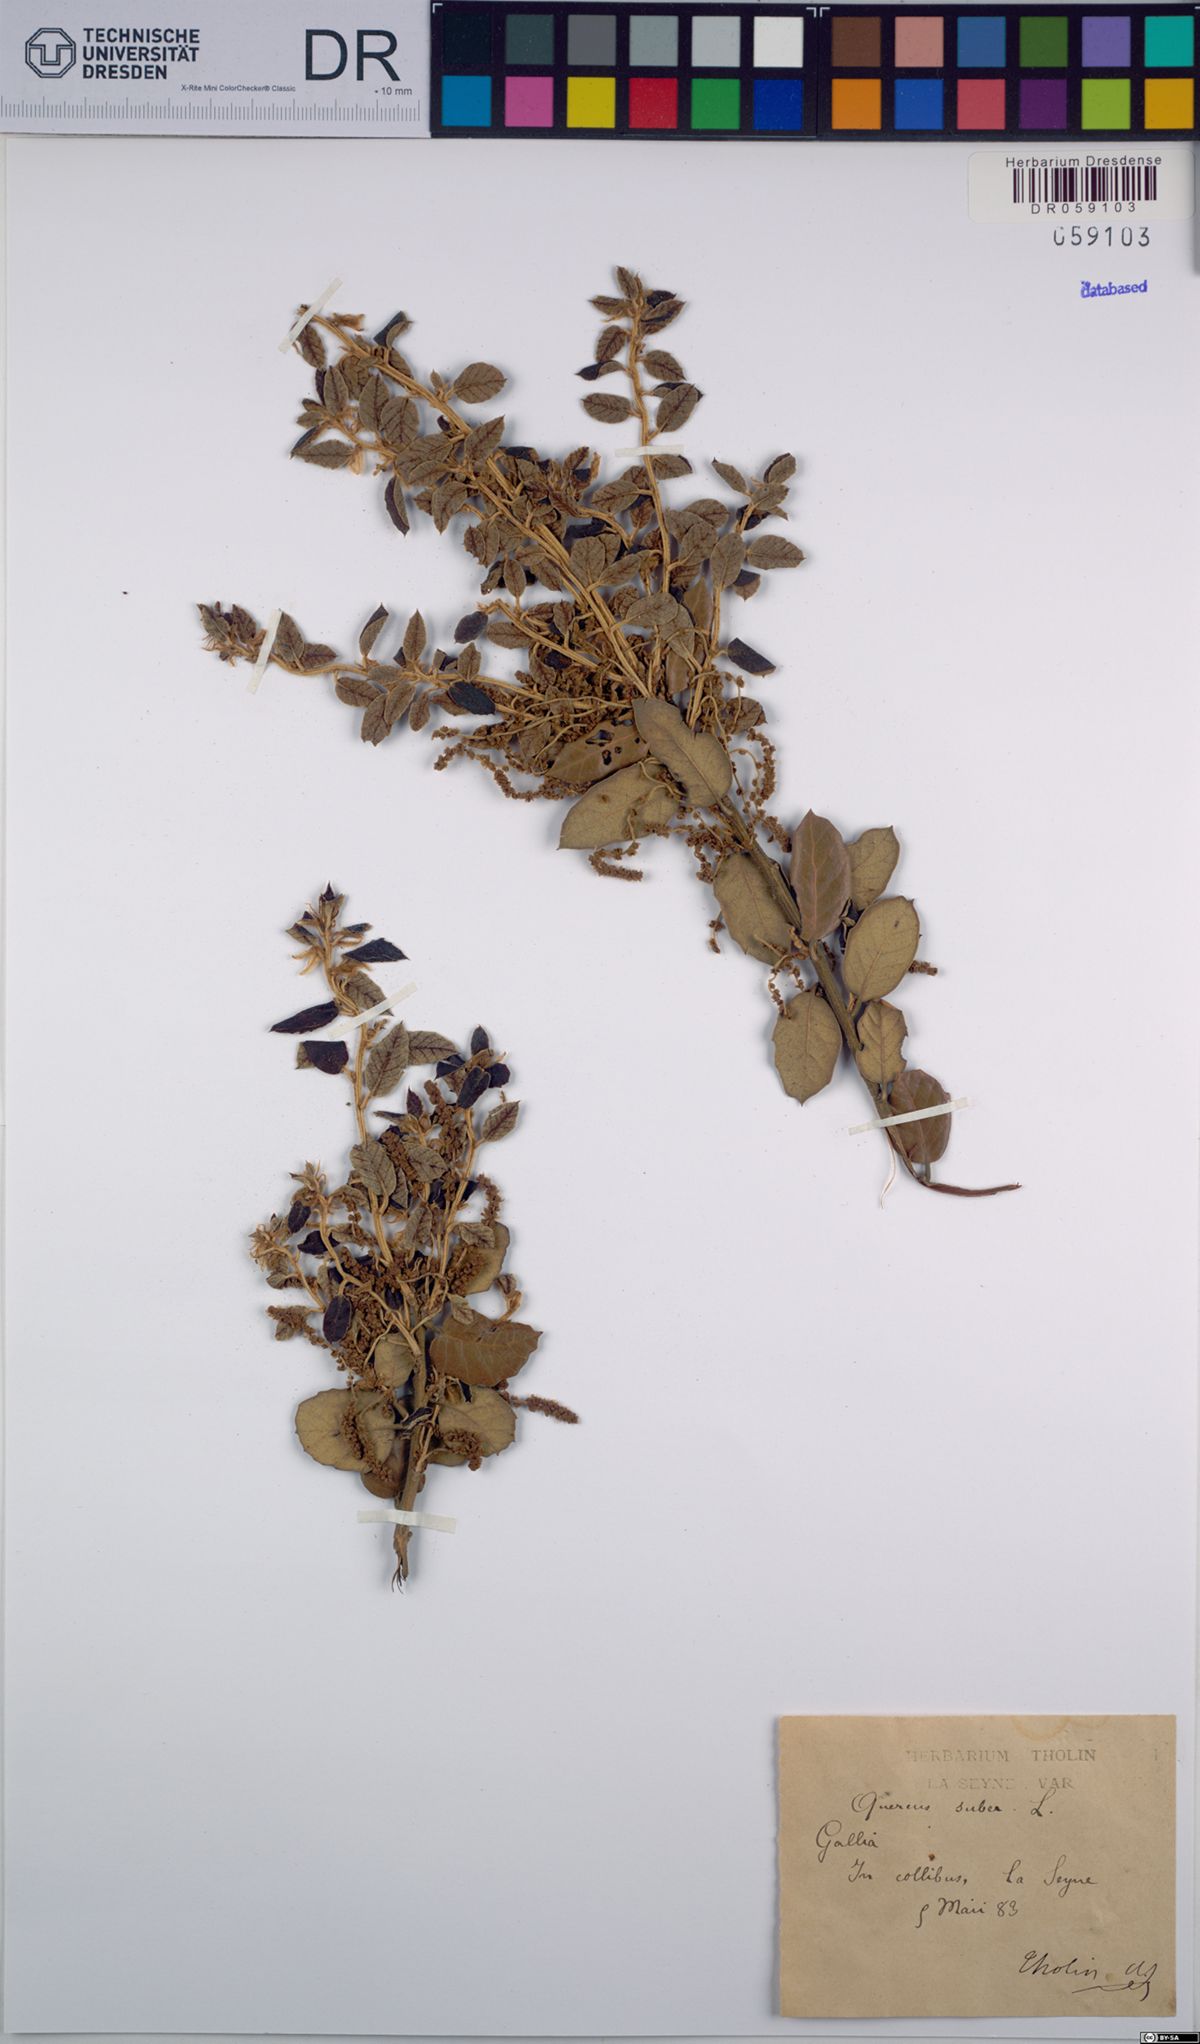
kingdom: Plantae
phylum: Tracheophyta
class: Magnoliopsida
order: Fagales
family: Fagaceae
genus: Quercus
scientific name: Quercus suber
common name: Cork oak
